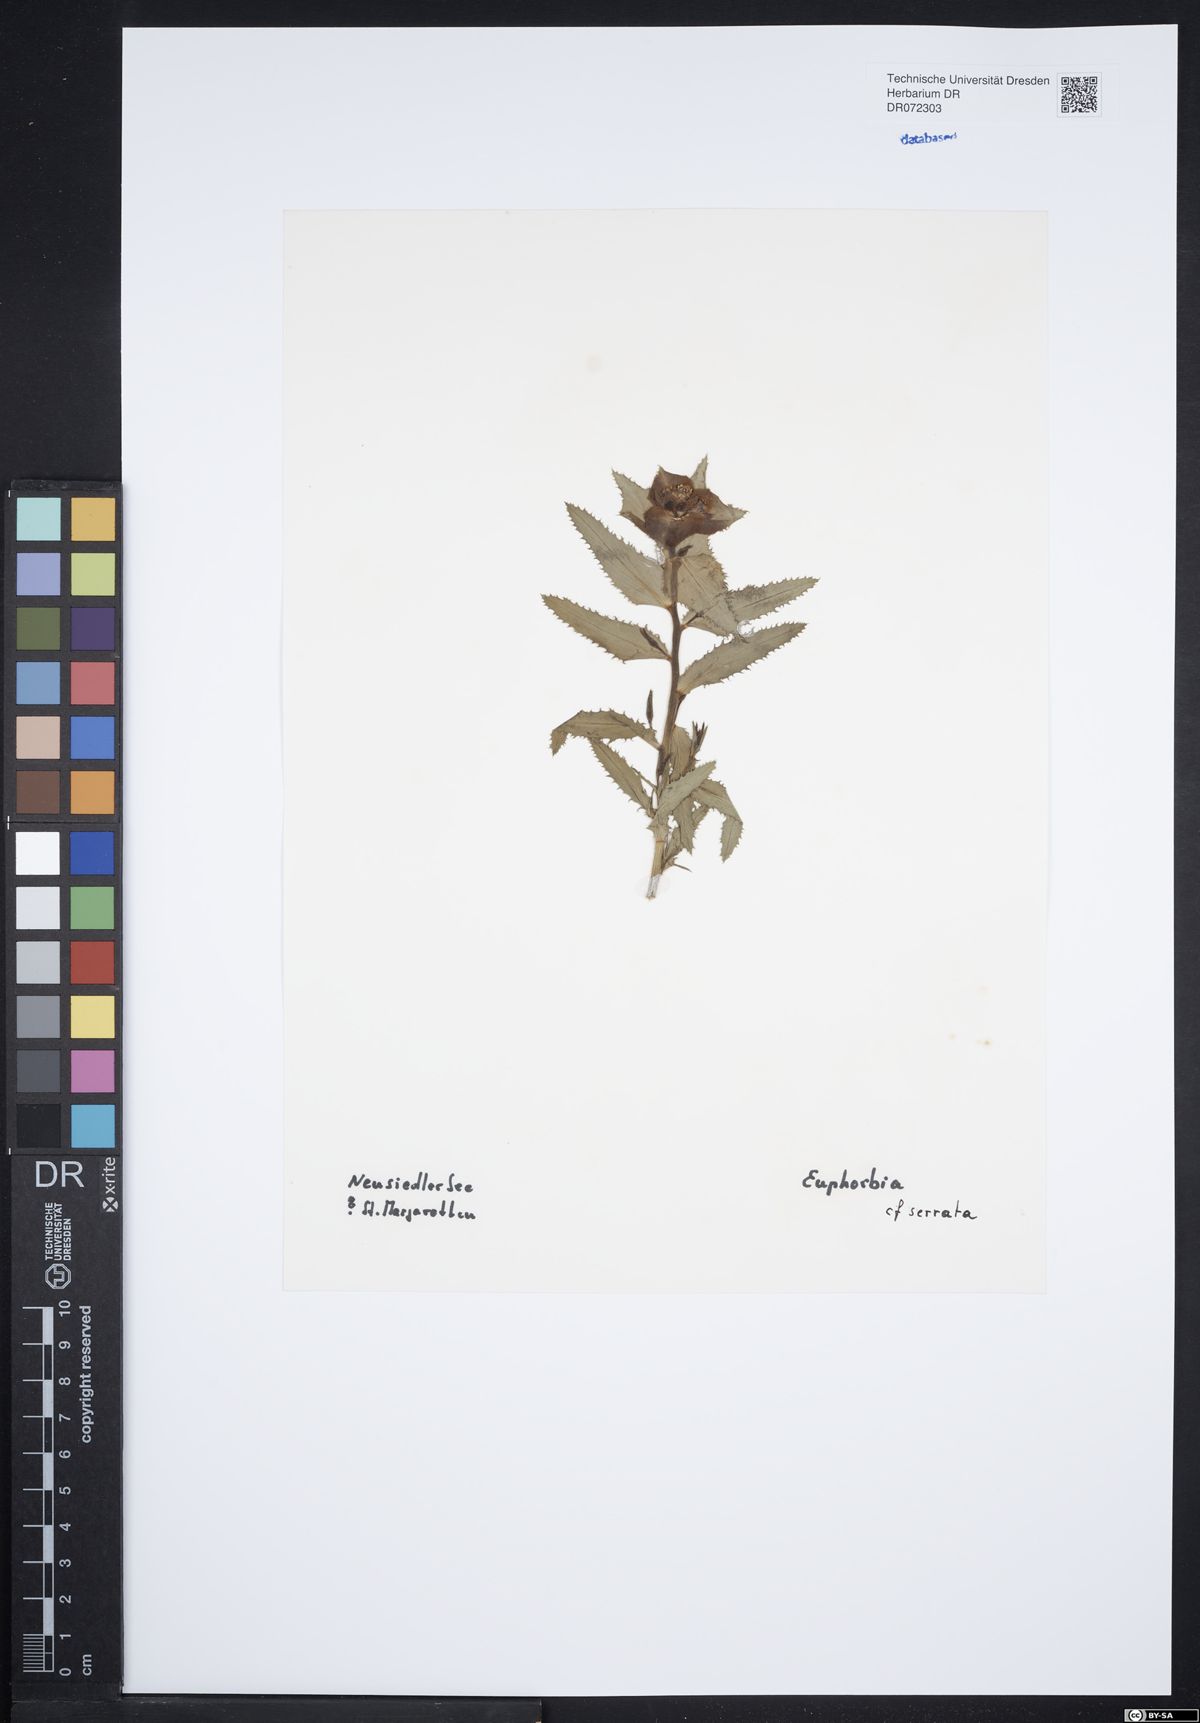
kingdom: Plantae
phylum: Tracheophyta
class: Magnoliopsida
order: Malpighiales
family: Euphorbiaceae
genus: Euphorbia
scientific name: Euphorbia serrata
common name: Serrate spurge
